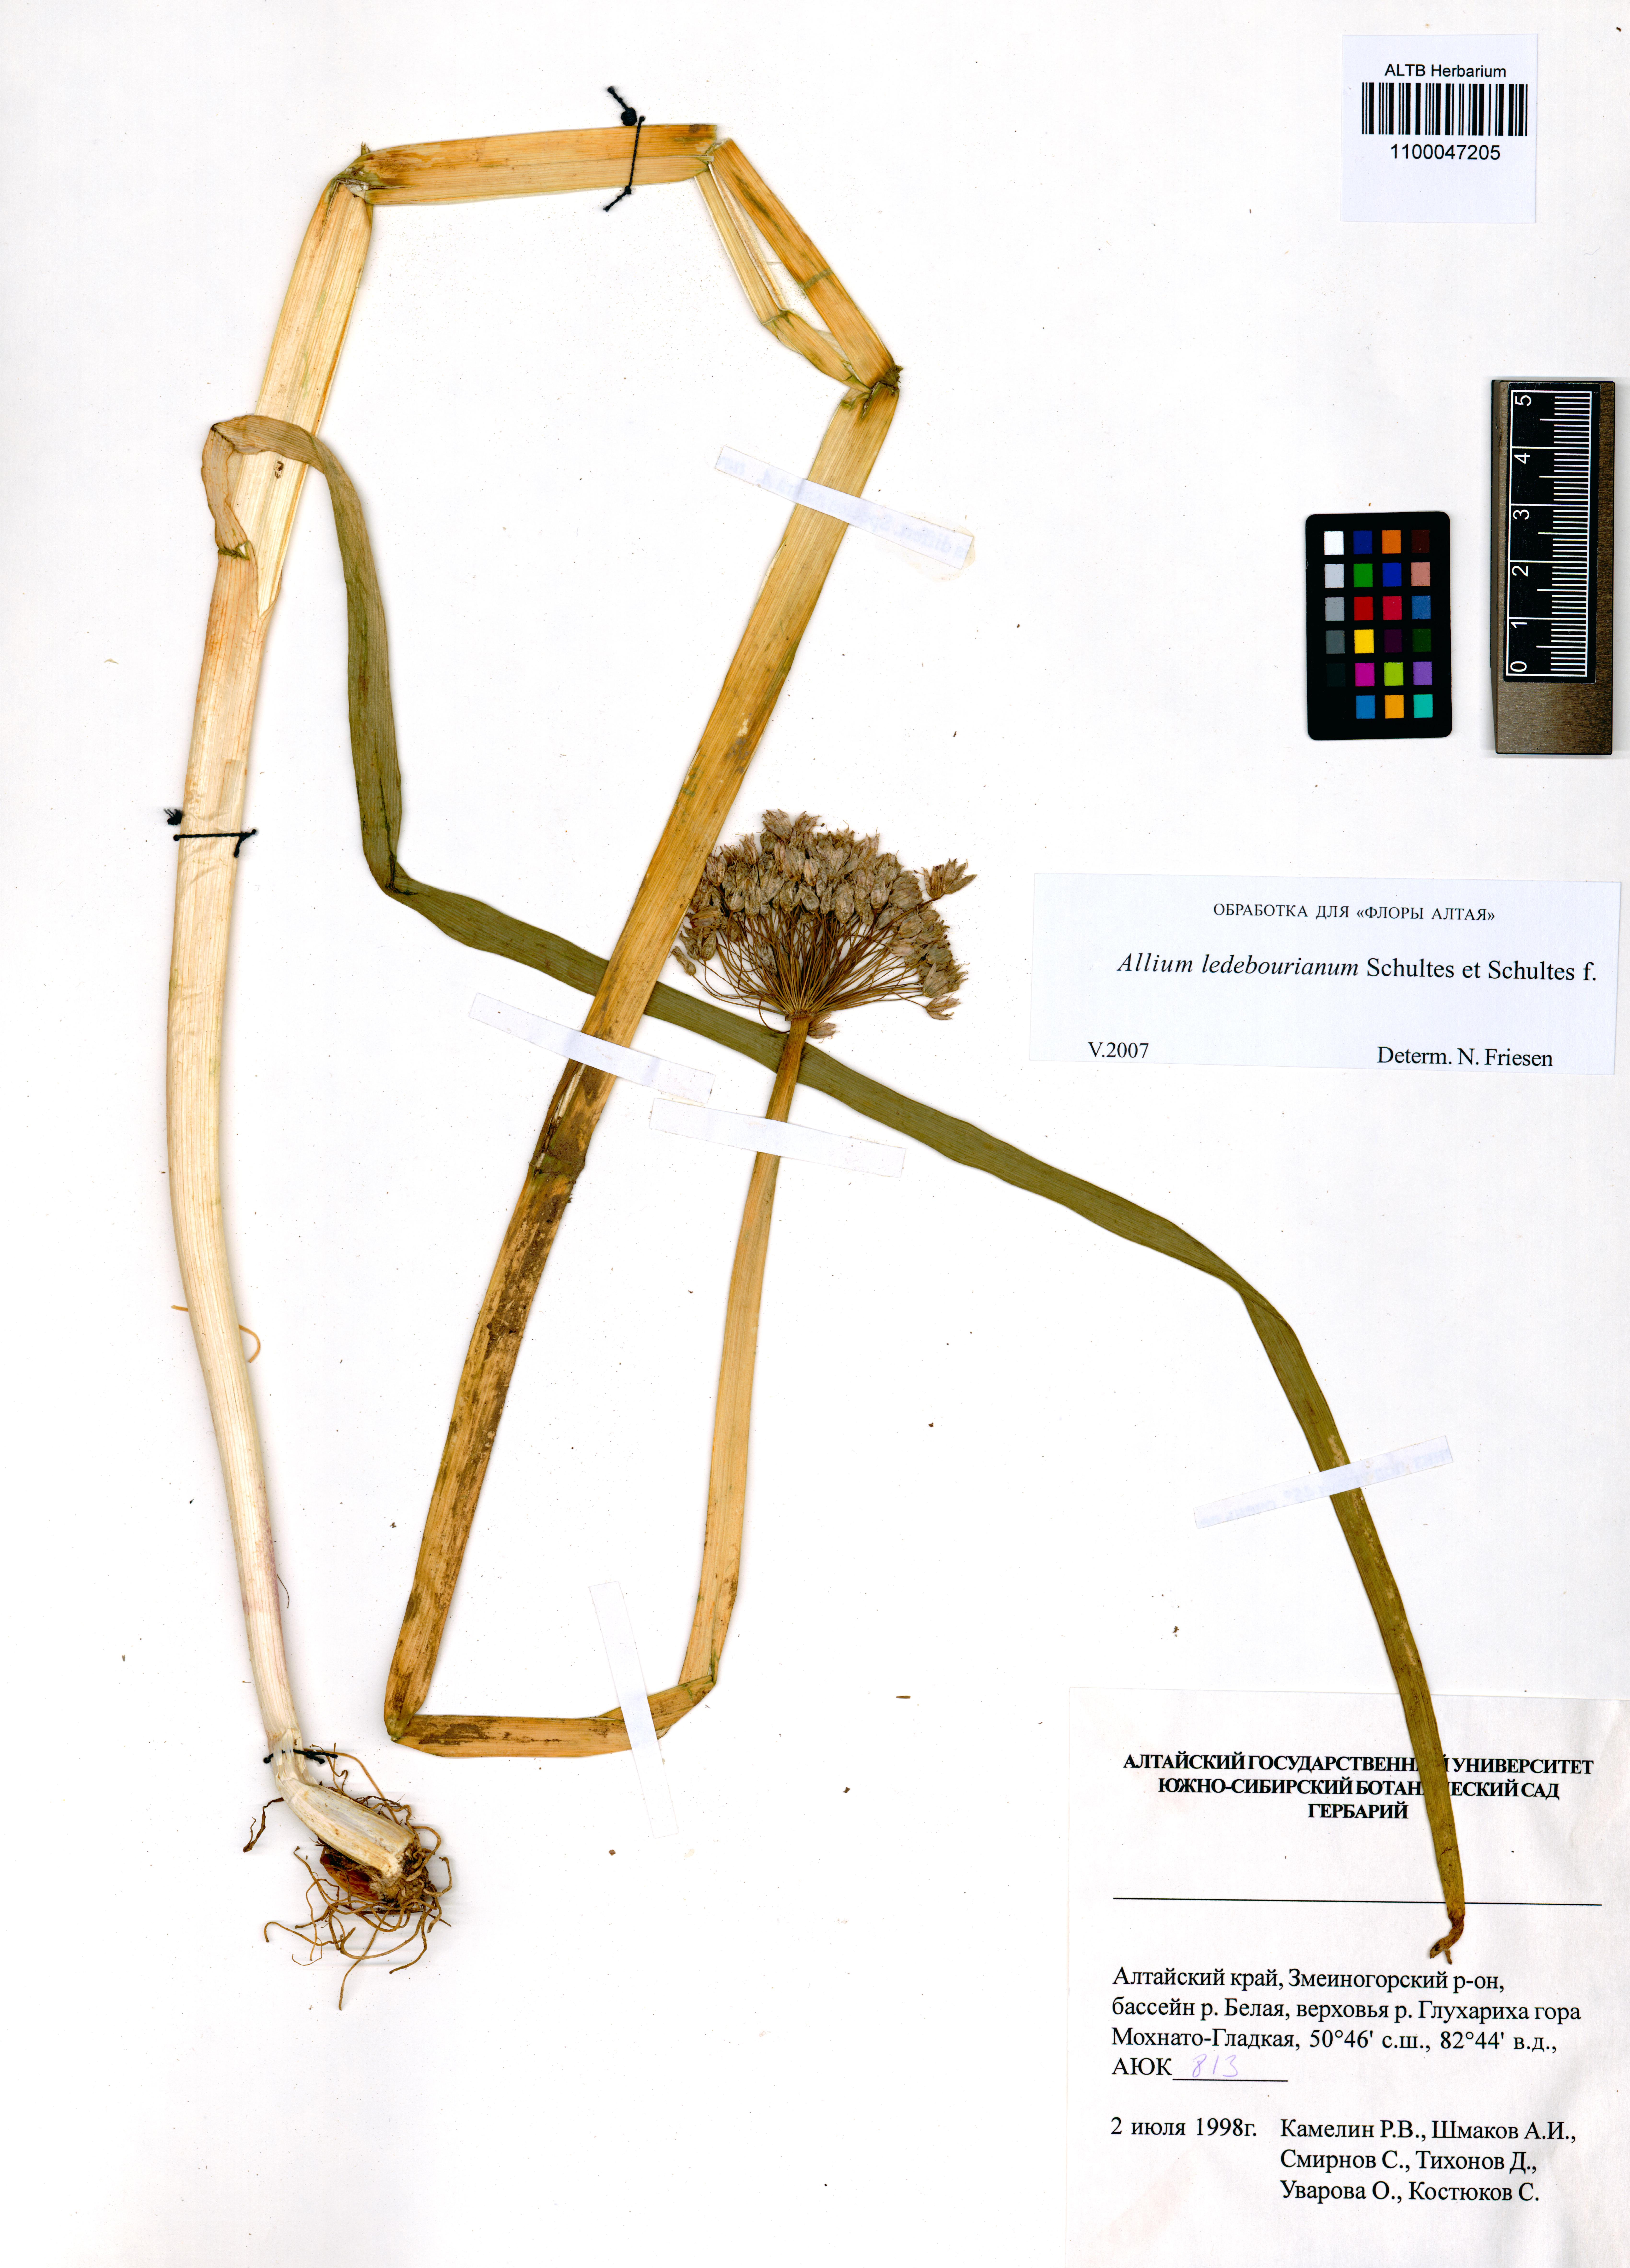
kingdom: Plantae
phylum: Tracheophyta
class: Liliopsida
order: Asparagales
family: Amaryllidaceae
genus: Allium
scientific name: Allium ledebourianum
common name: Ledebour chive
